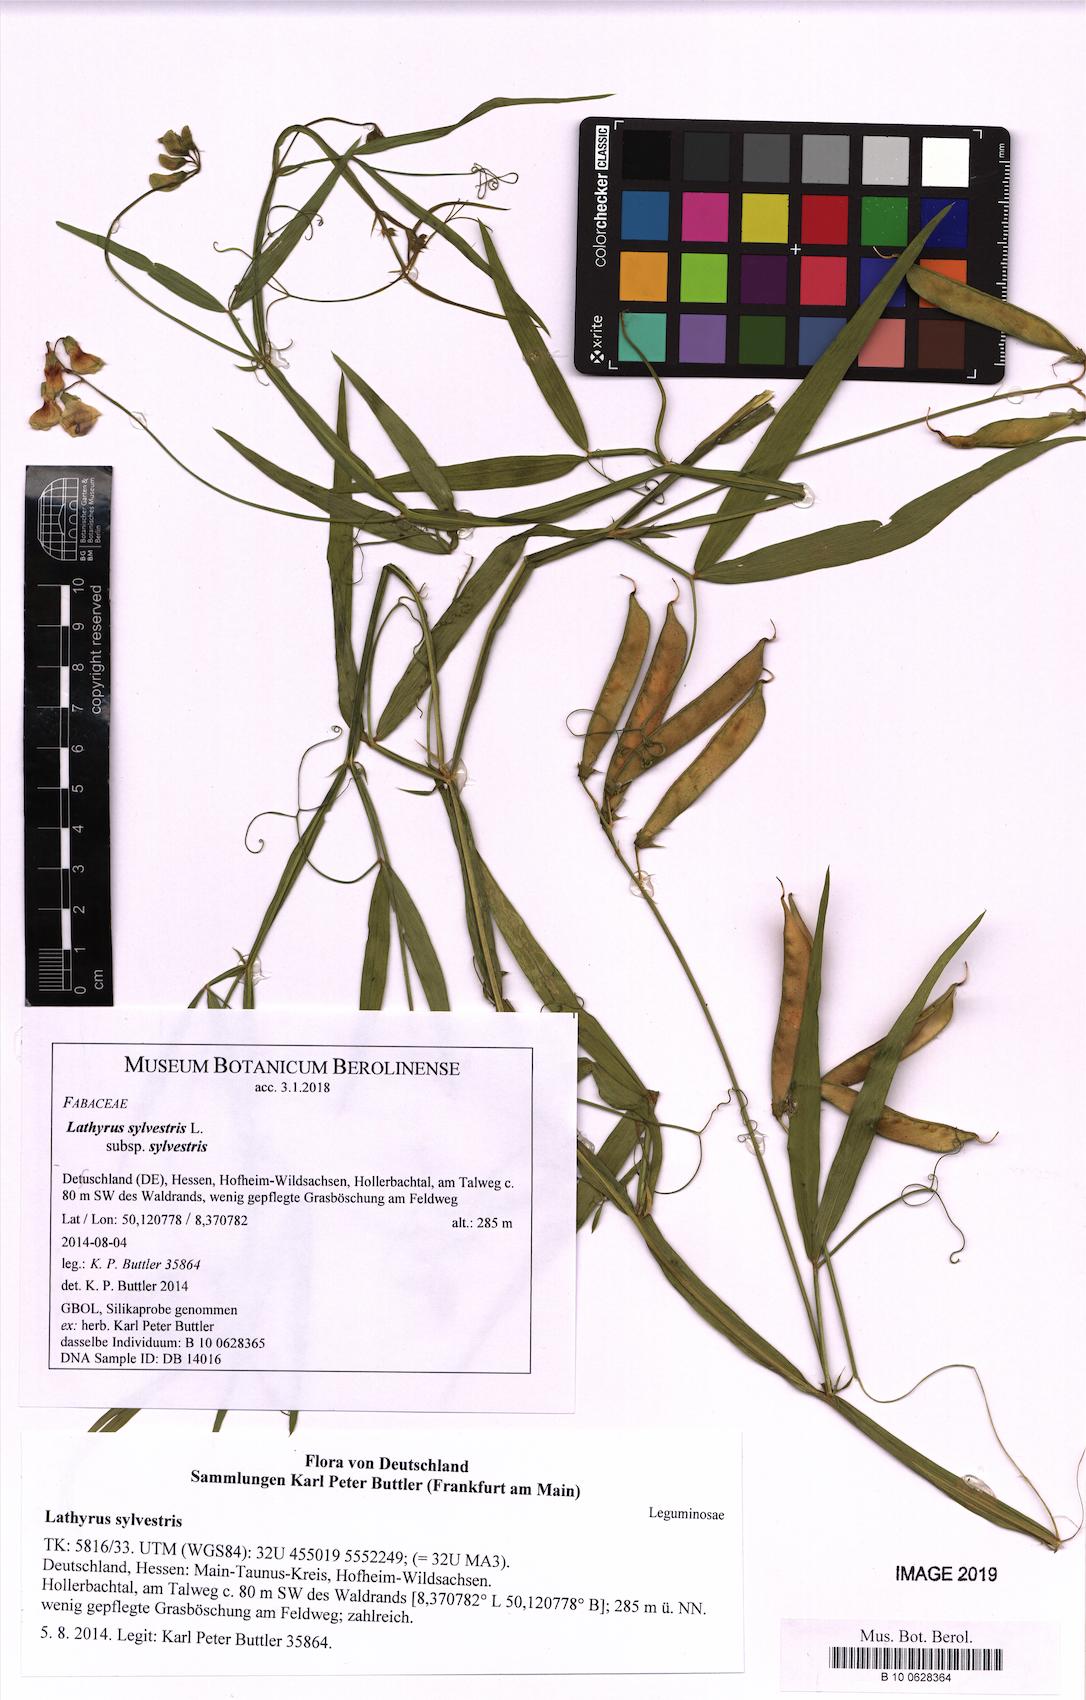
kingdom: Plantae
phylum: Tracheophyta
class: Magnoliopsida
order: Fabales
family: Fabaceae
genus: Lathyrus
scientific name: Lathyrus sylvestris
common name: Flat pea
